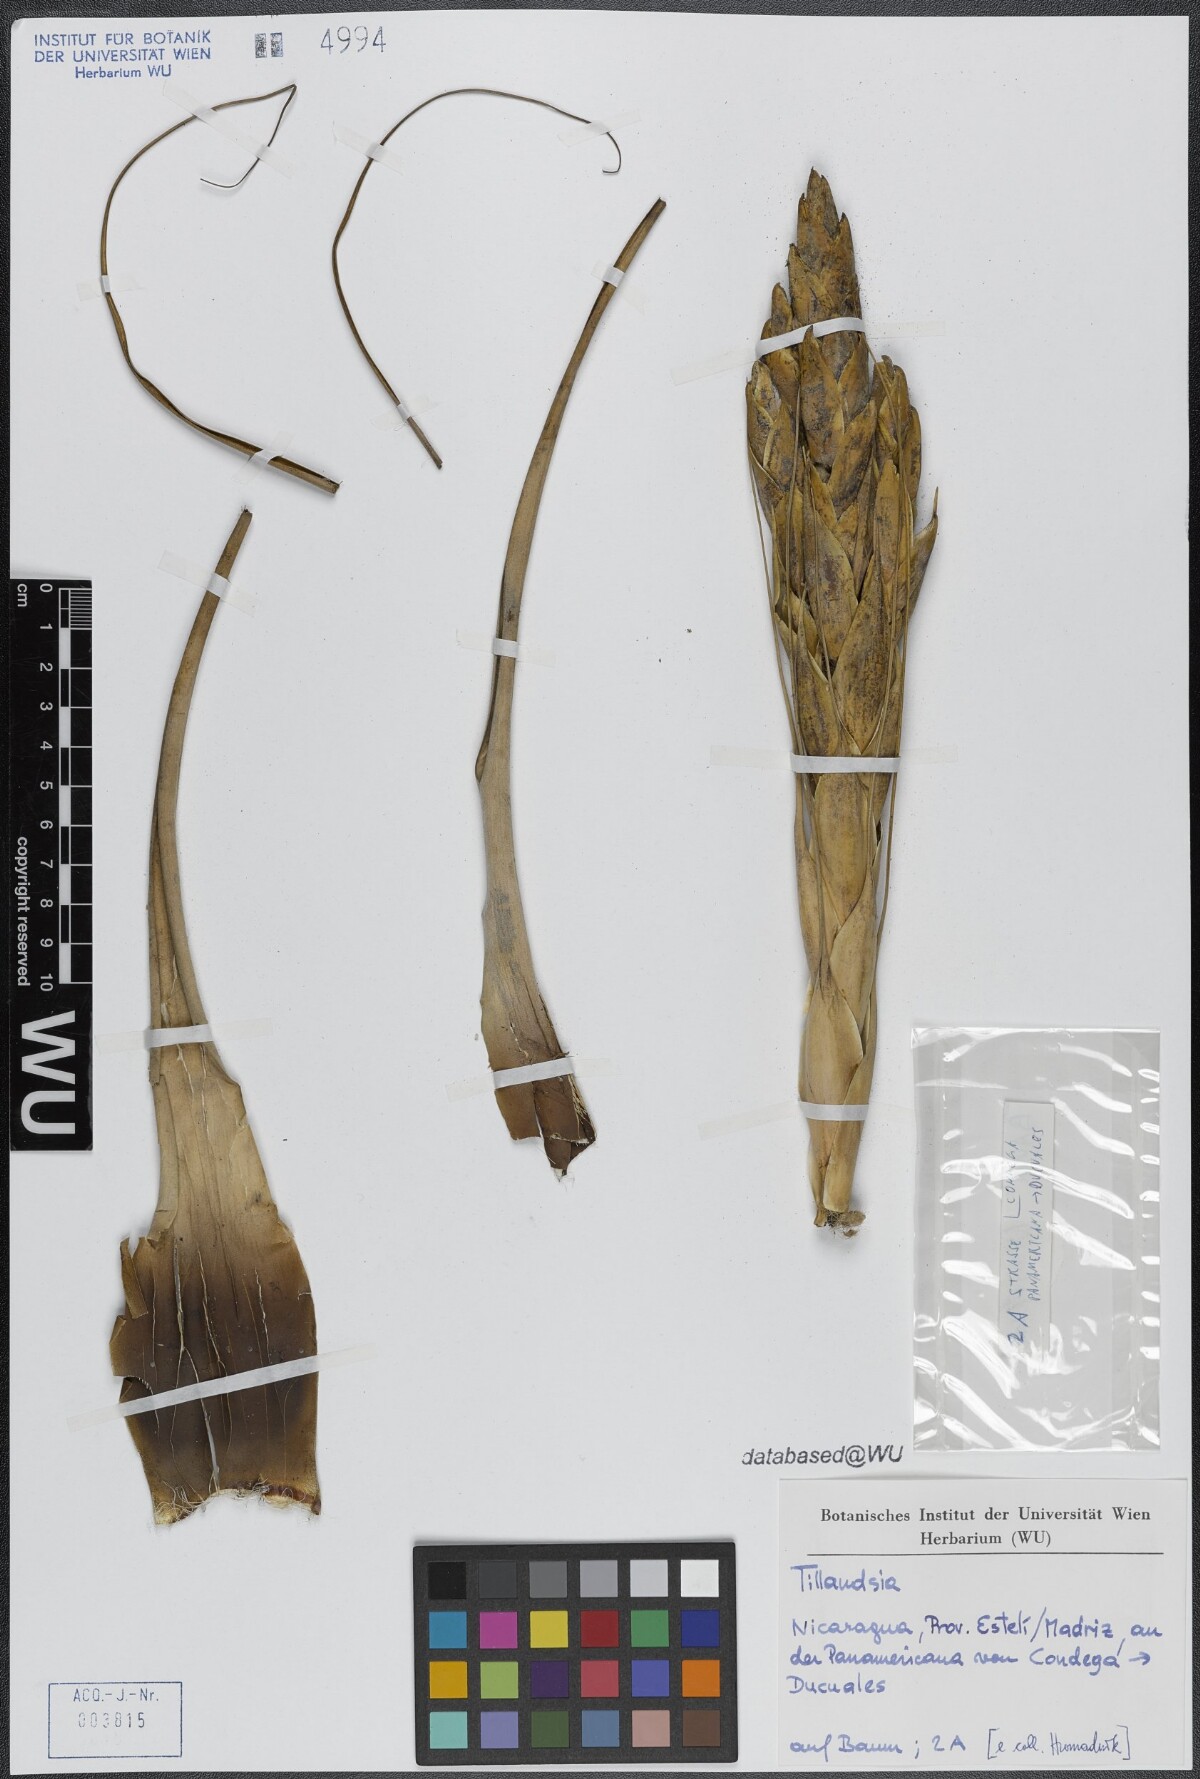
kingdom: Plantae
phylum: Tracheophyta
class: Liliopsida
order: Poales
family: Bromeliaceae
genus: Tillandsia
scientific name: Tillandsia fasciculata
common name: Giant airplant
